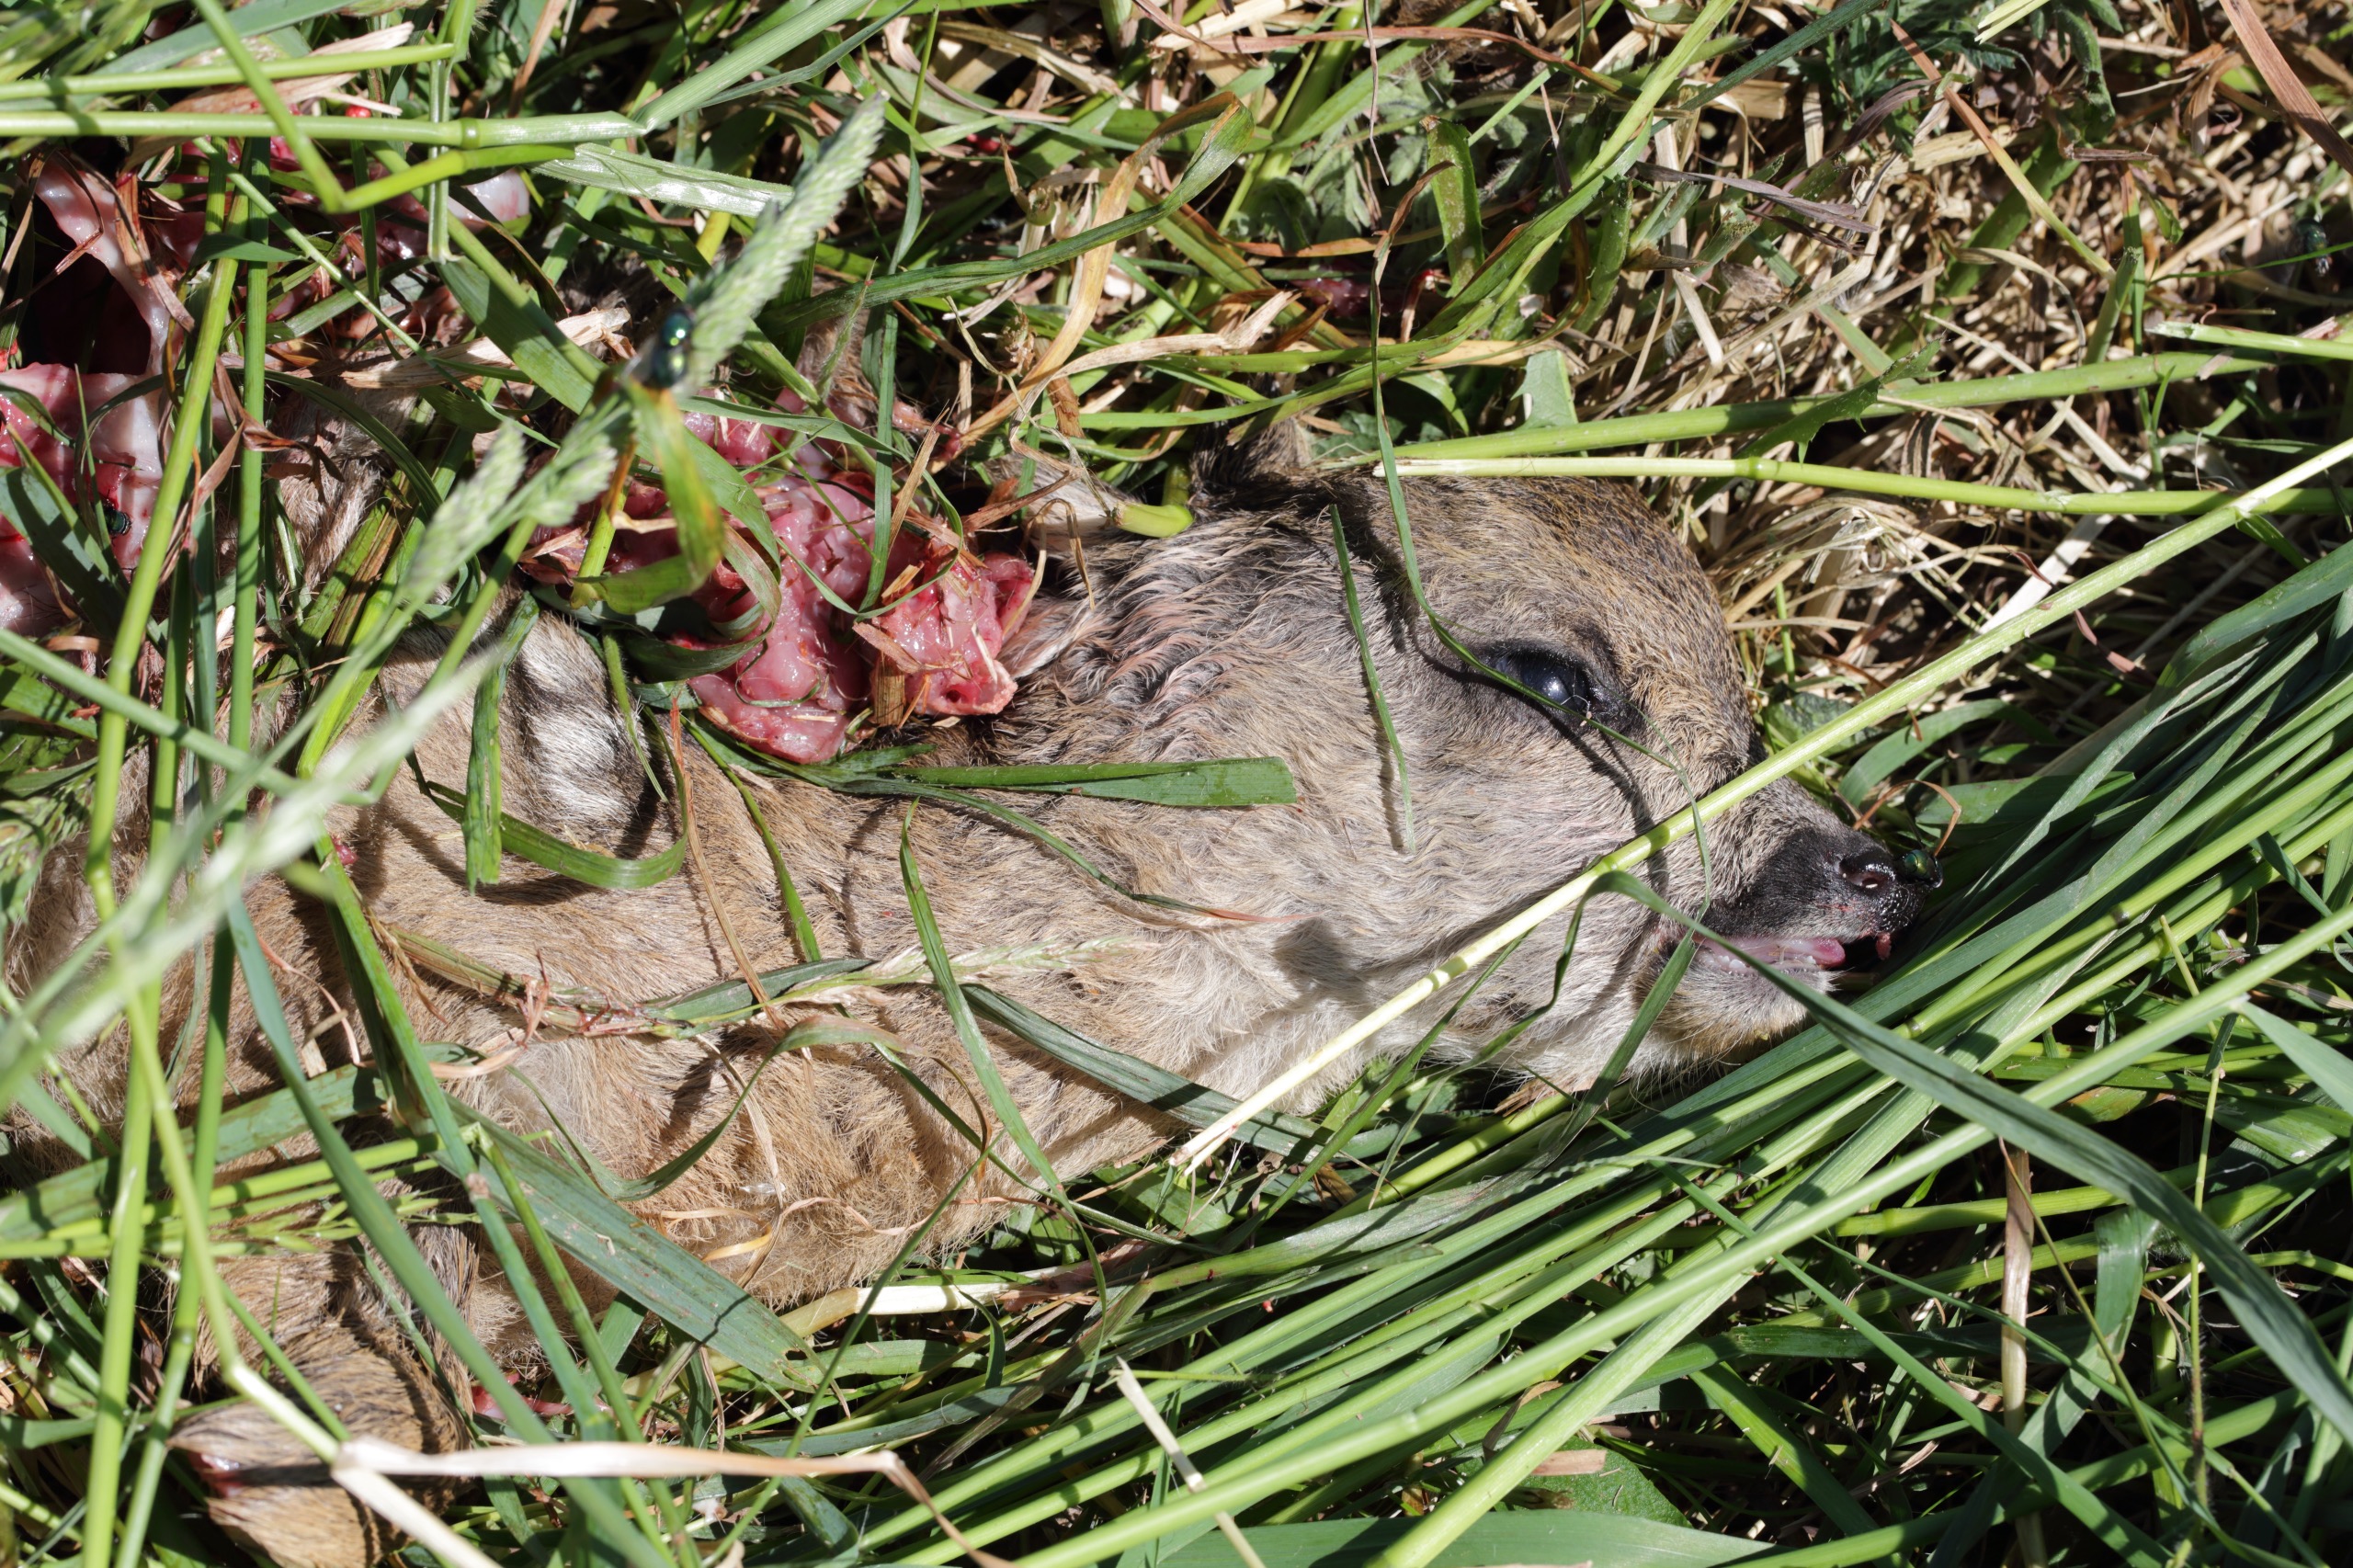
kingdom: Animalia
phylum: Chordata
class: Mammalia
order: Artiodactyla
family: Cervidae
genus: Capreolus
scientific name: Capreolus capreolus
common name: Rådyr
